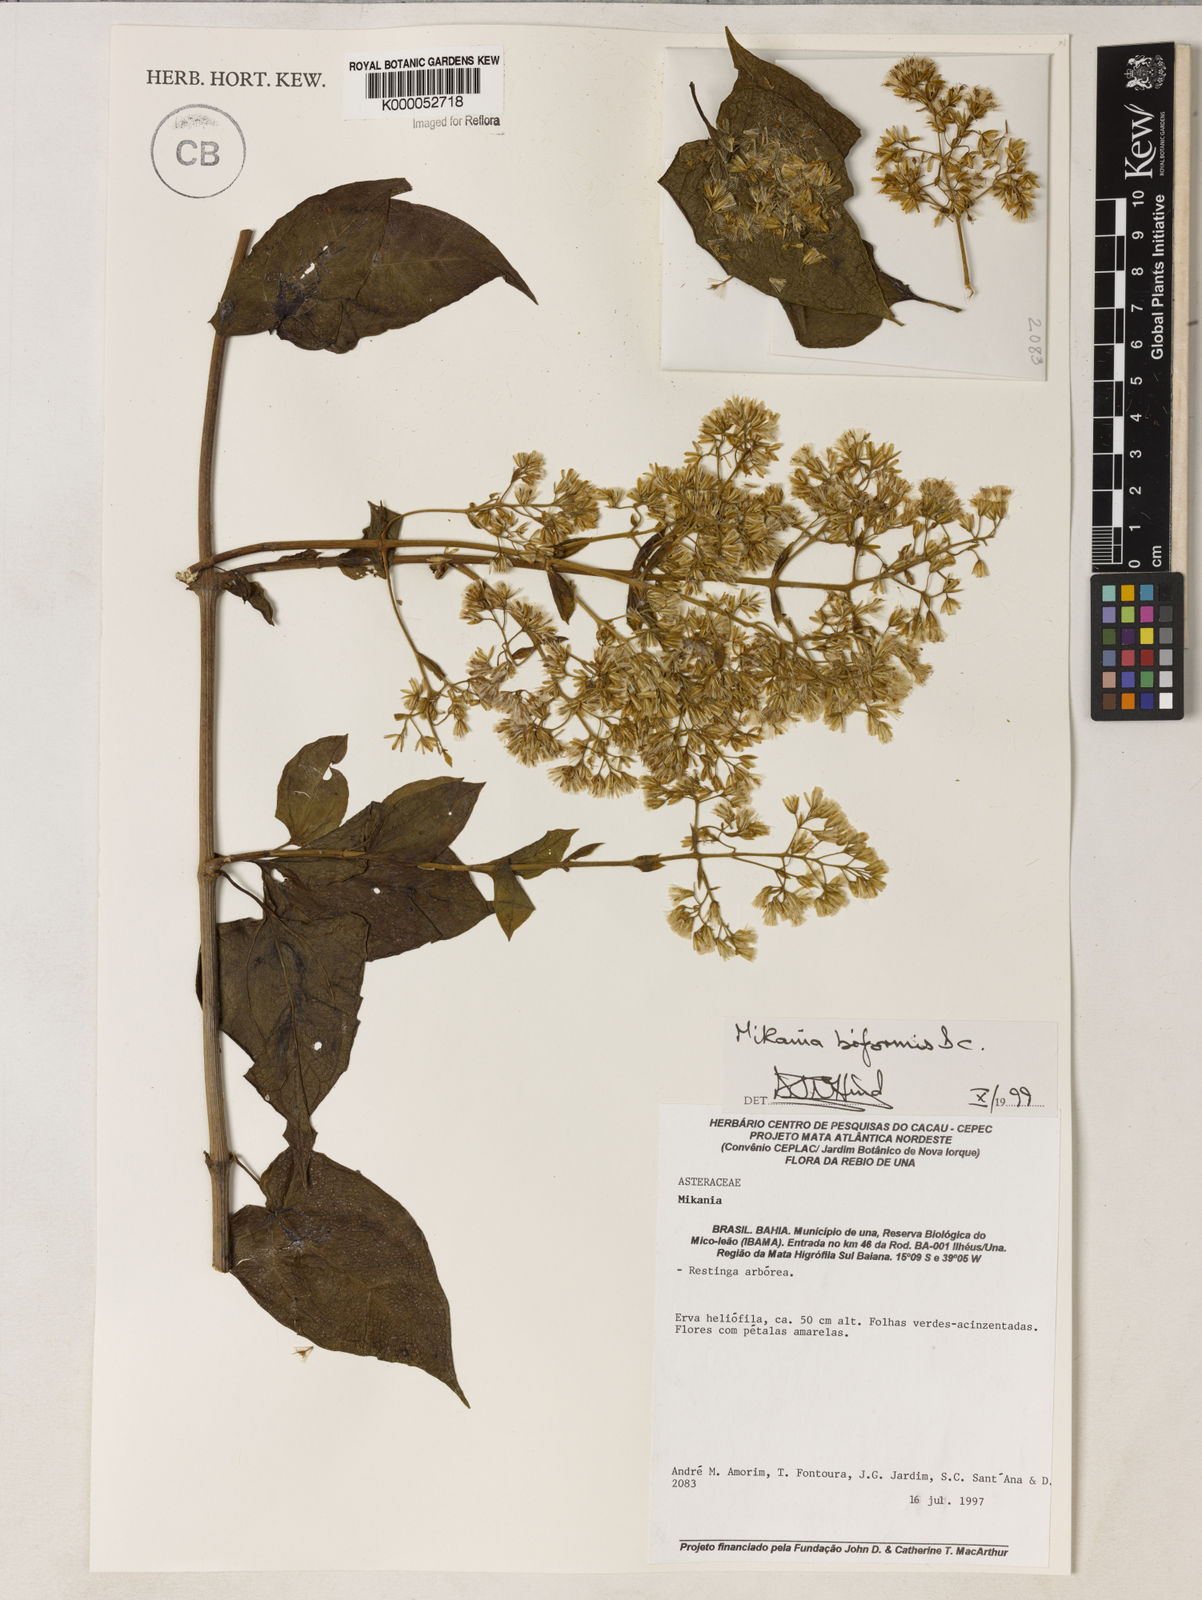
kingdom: Plantae
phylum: Tracheophyta
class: Magnoliopsida
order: Asterales
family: Asteraceae
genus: Mikania
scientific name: Mikania biformis
